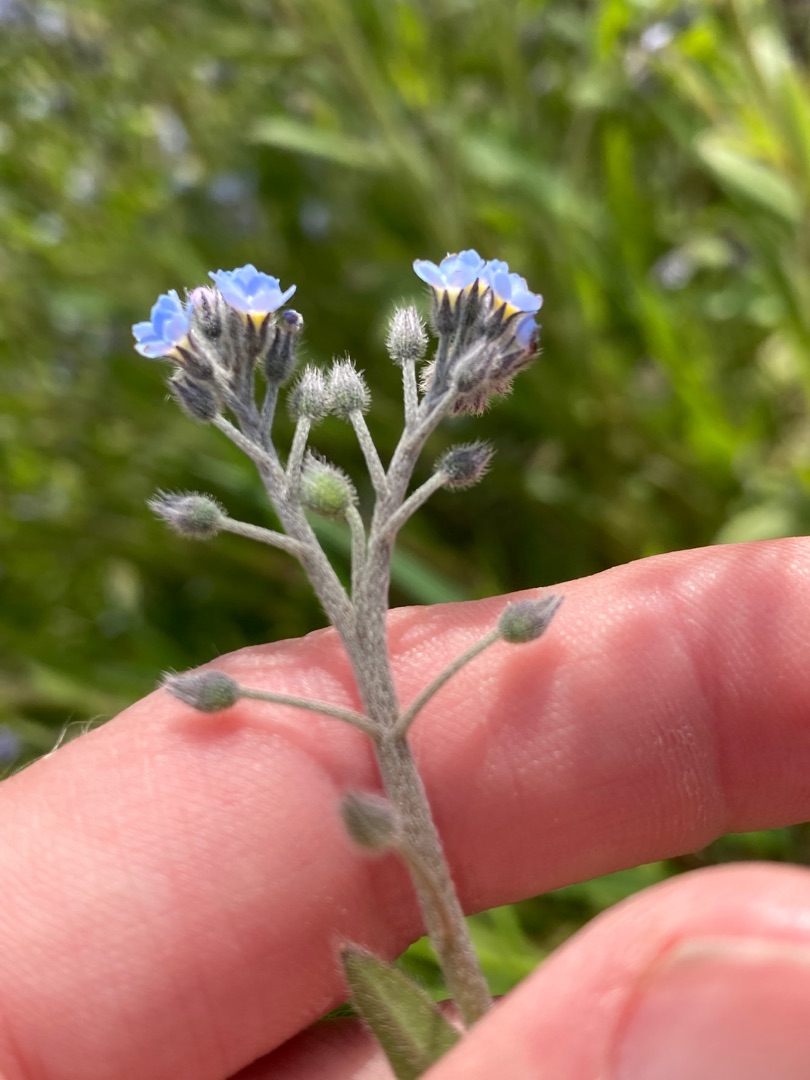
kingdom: Plantae
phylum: Tracheophyta
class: Magnoliopsida
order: Boraginales
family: Boraginaceae
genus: Myosotis
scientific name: Myosotis arvensis
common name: Mark-forglemmigej
